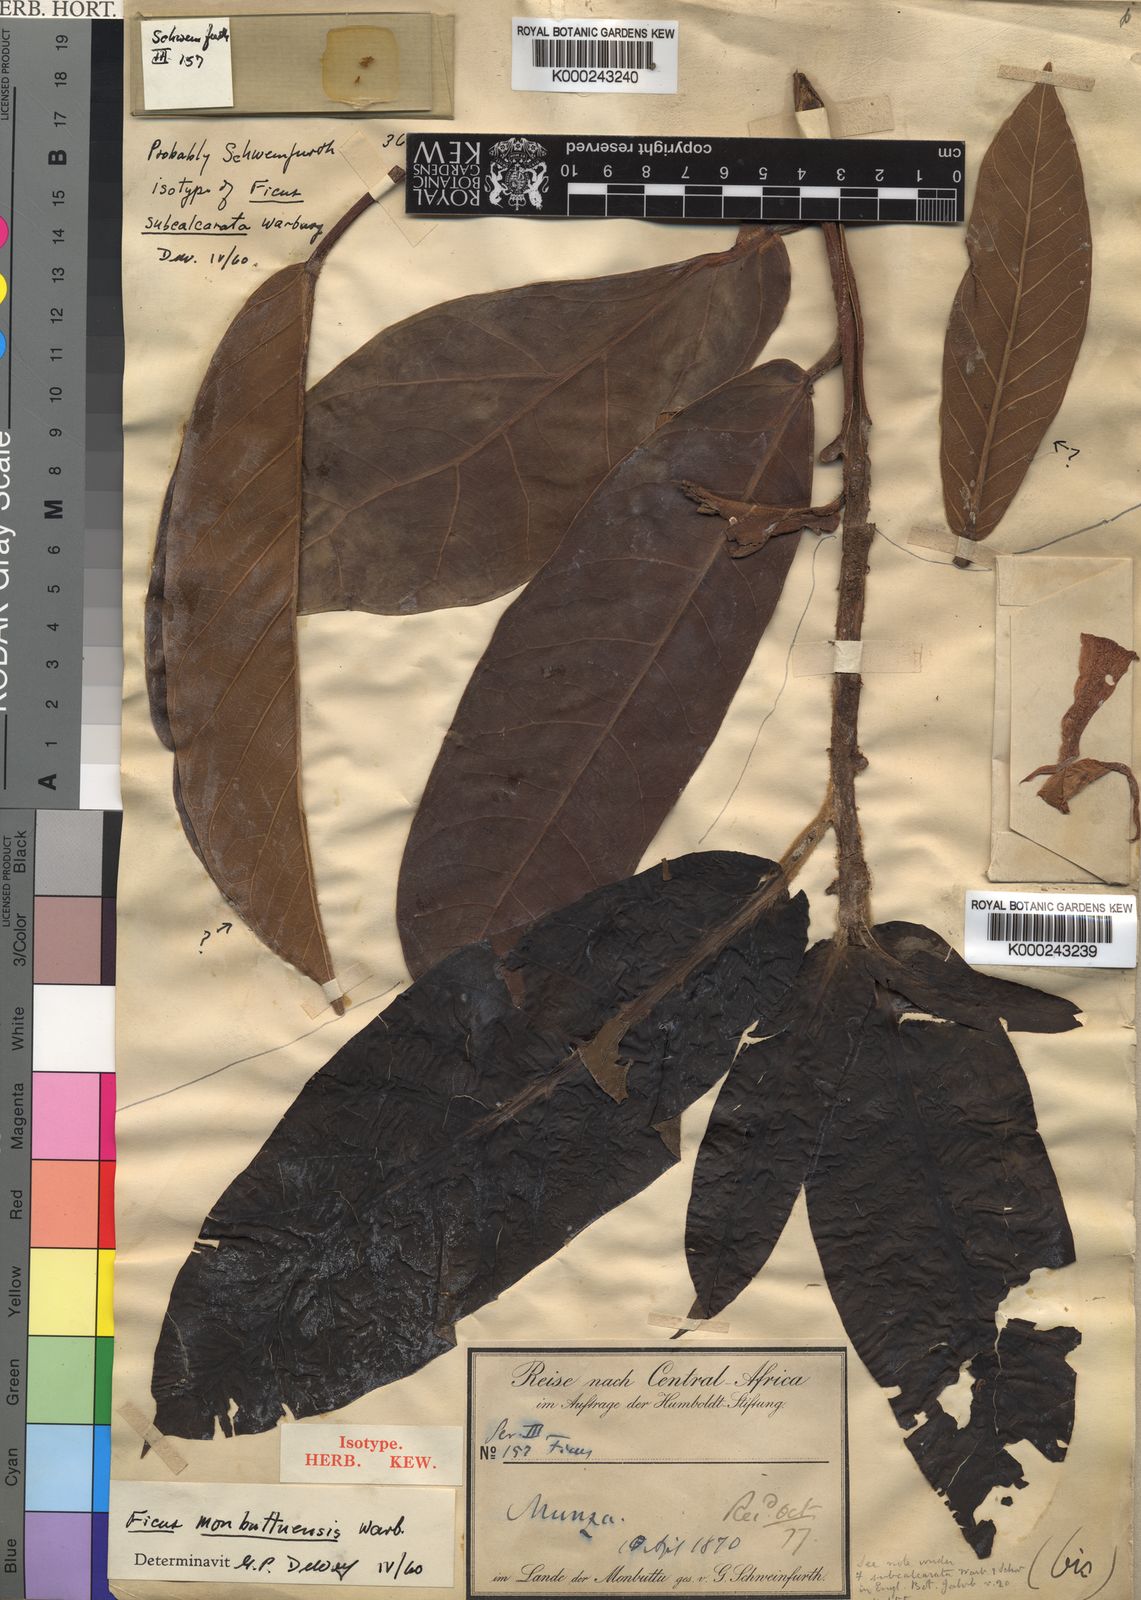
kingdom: Plantae
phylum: Tracheophyta
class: Magnoliopsida
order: Rosales
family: Moraceae
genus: Ficus
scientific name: Ficus saussureana
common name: Loquat-leaf fig
